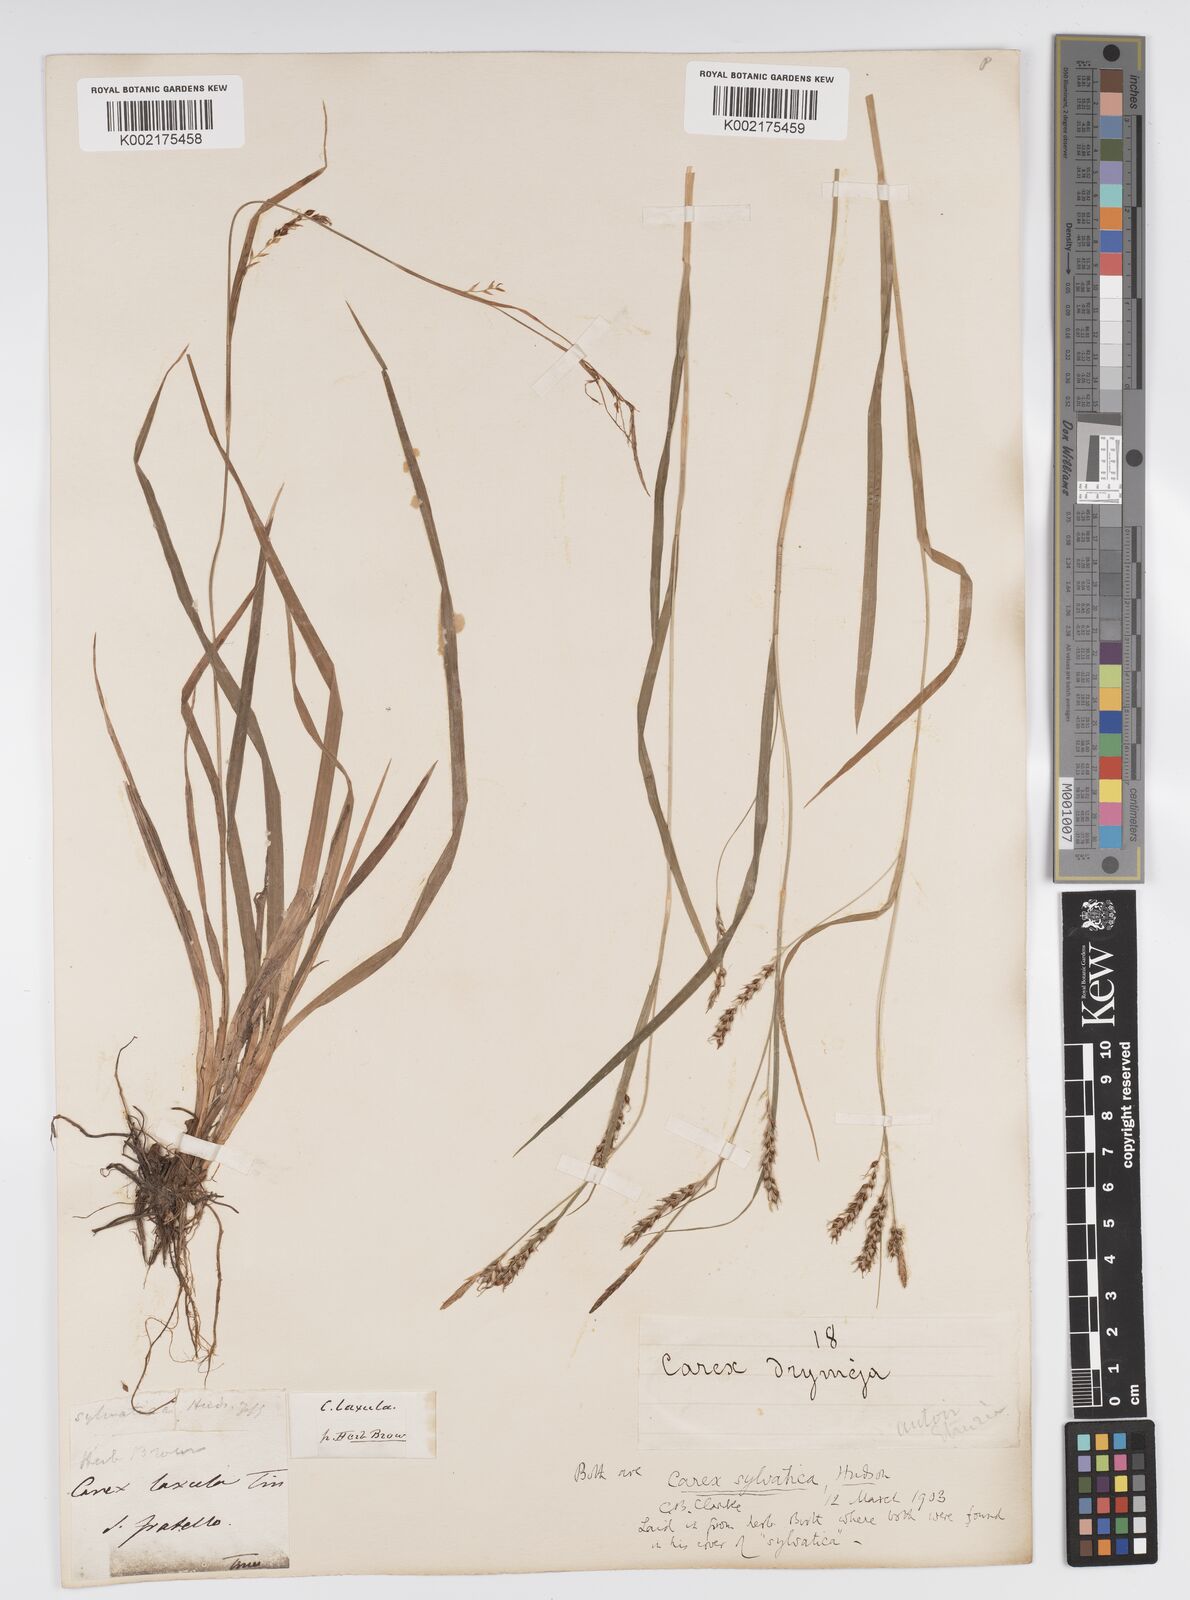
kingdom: Plantae
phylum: Tracheophyta
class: Liliopsida
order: Poales
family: Cyperaceae
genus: Carex
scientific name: Carex sylvatica
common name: Wood-sedge
